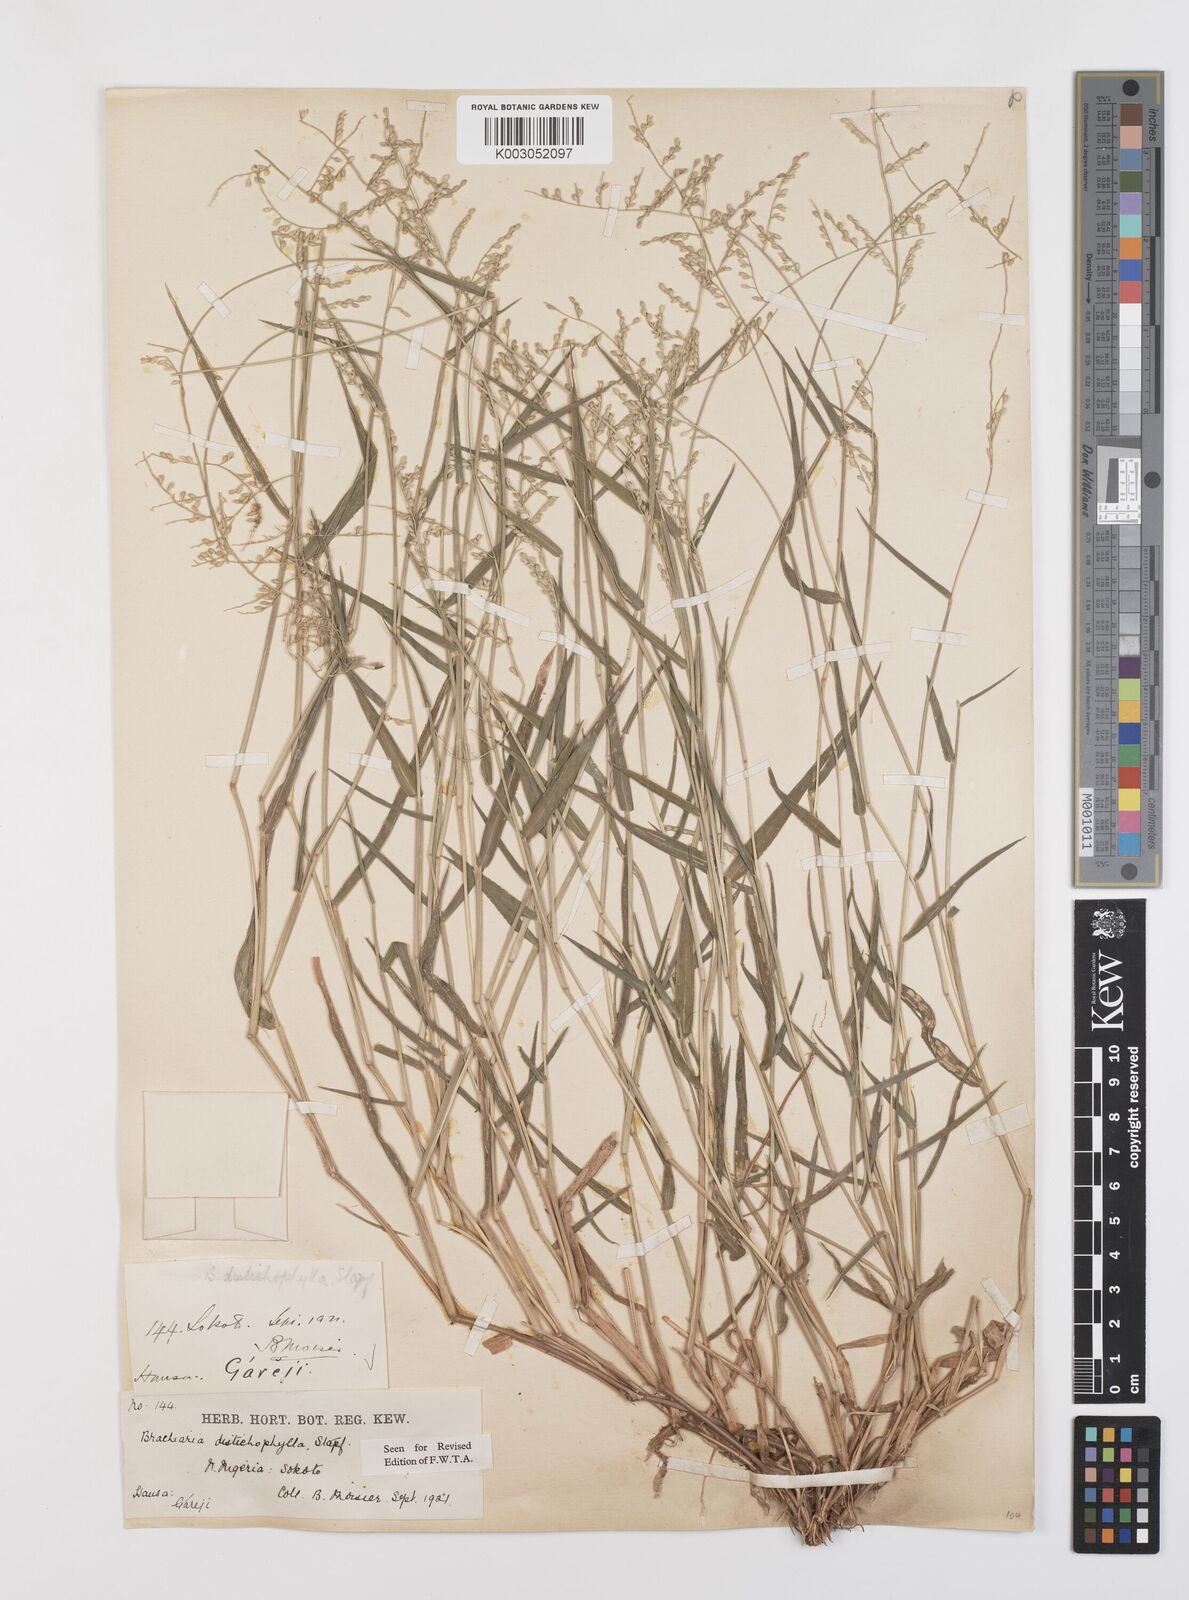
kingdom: Plantae
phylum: Tracheophyta
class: Liliopsida
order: Poales
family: Poaceae
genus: Urochloa
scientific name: Urochloa villosa
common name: Hairy signalgrass
